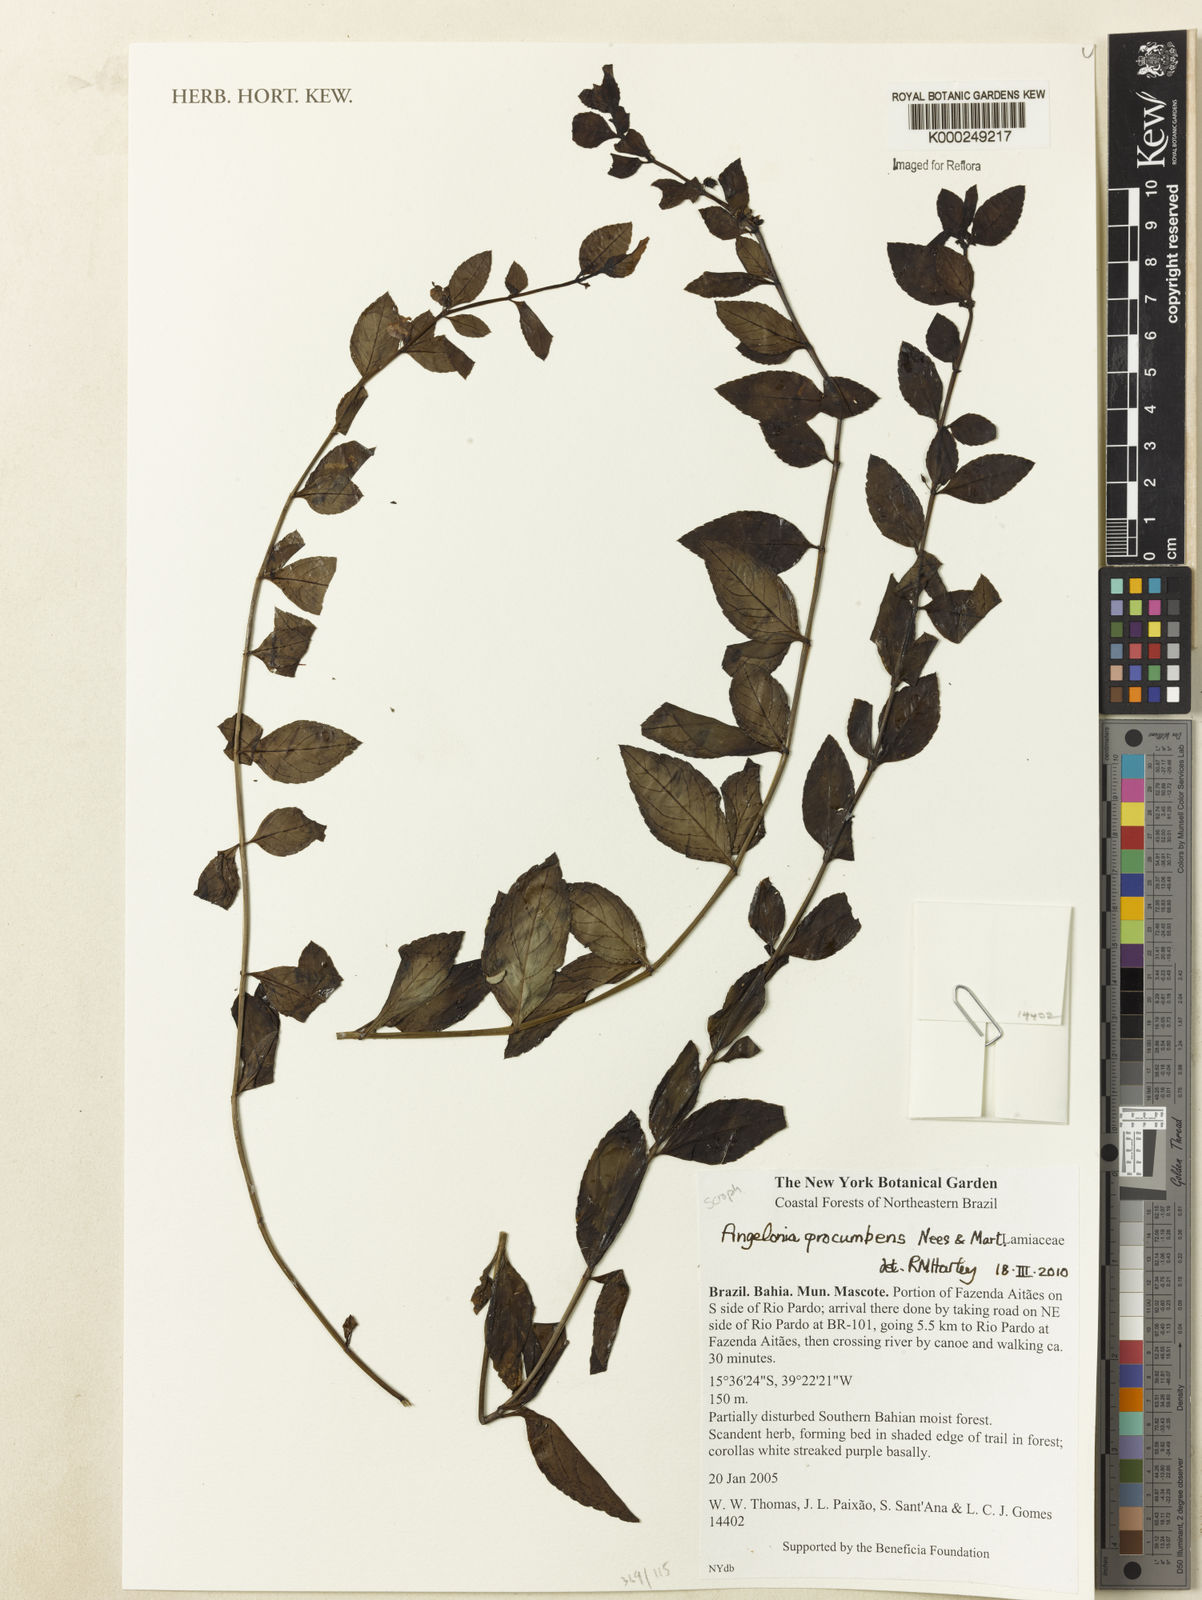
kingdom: Plantae
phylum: Tracheophyta
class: Magnoliopsida
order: Lamiales
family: Plantaginaceae
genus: Angelonia
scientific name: Angelonia procumbens
